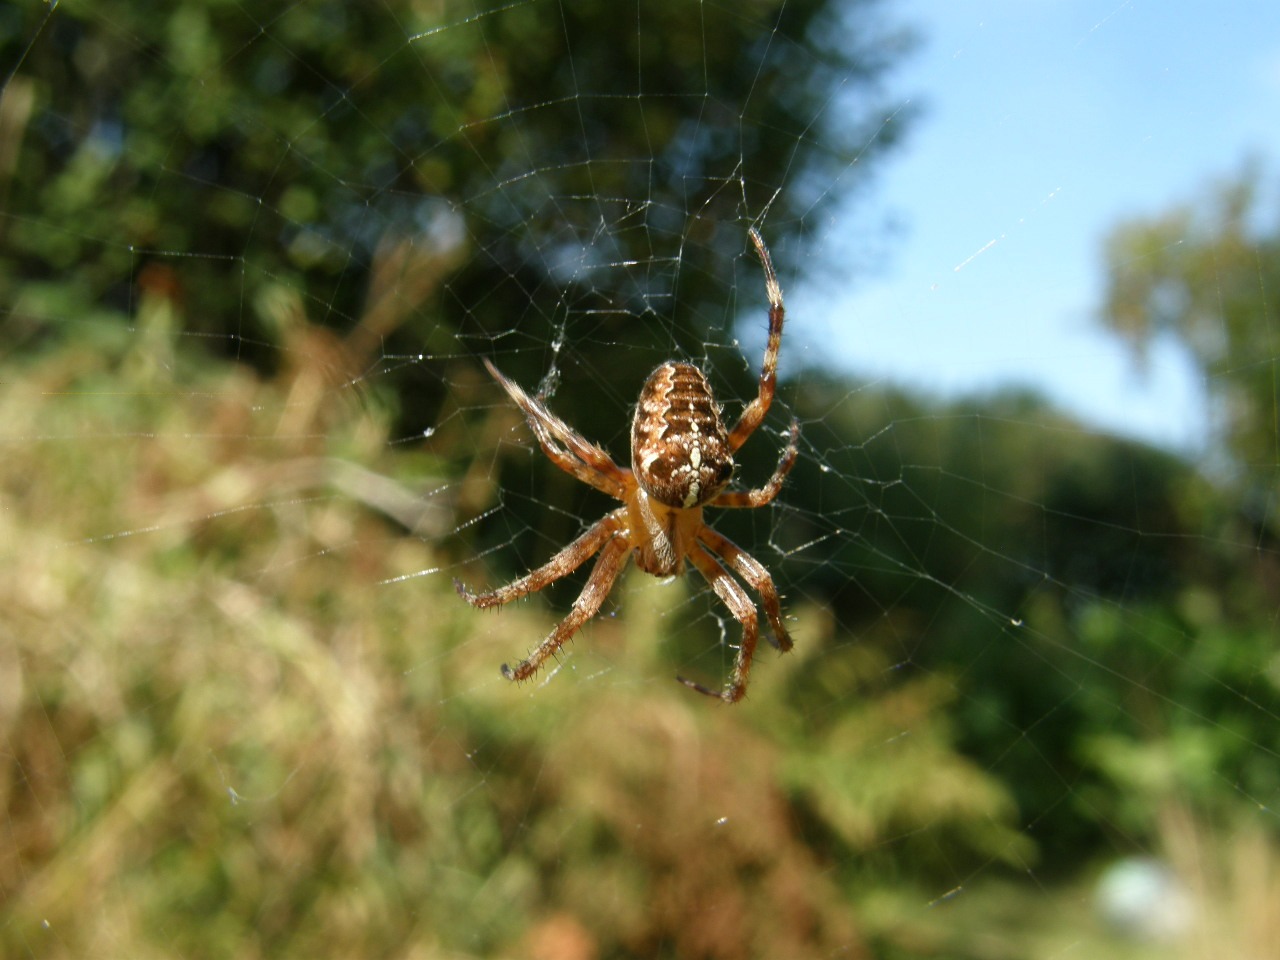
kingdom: Animalia
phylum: Arthropoda
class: Arachnida
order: Araneae
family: Araneidae
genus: Araneus
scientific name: Araneus diadematus
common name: Korsedderkop
